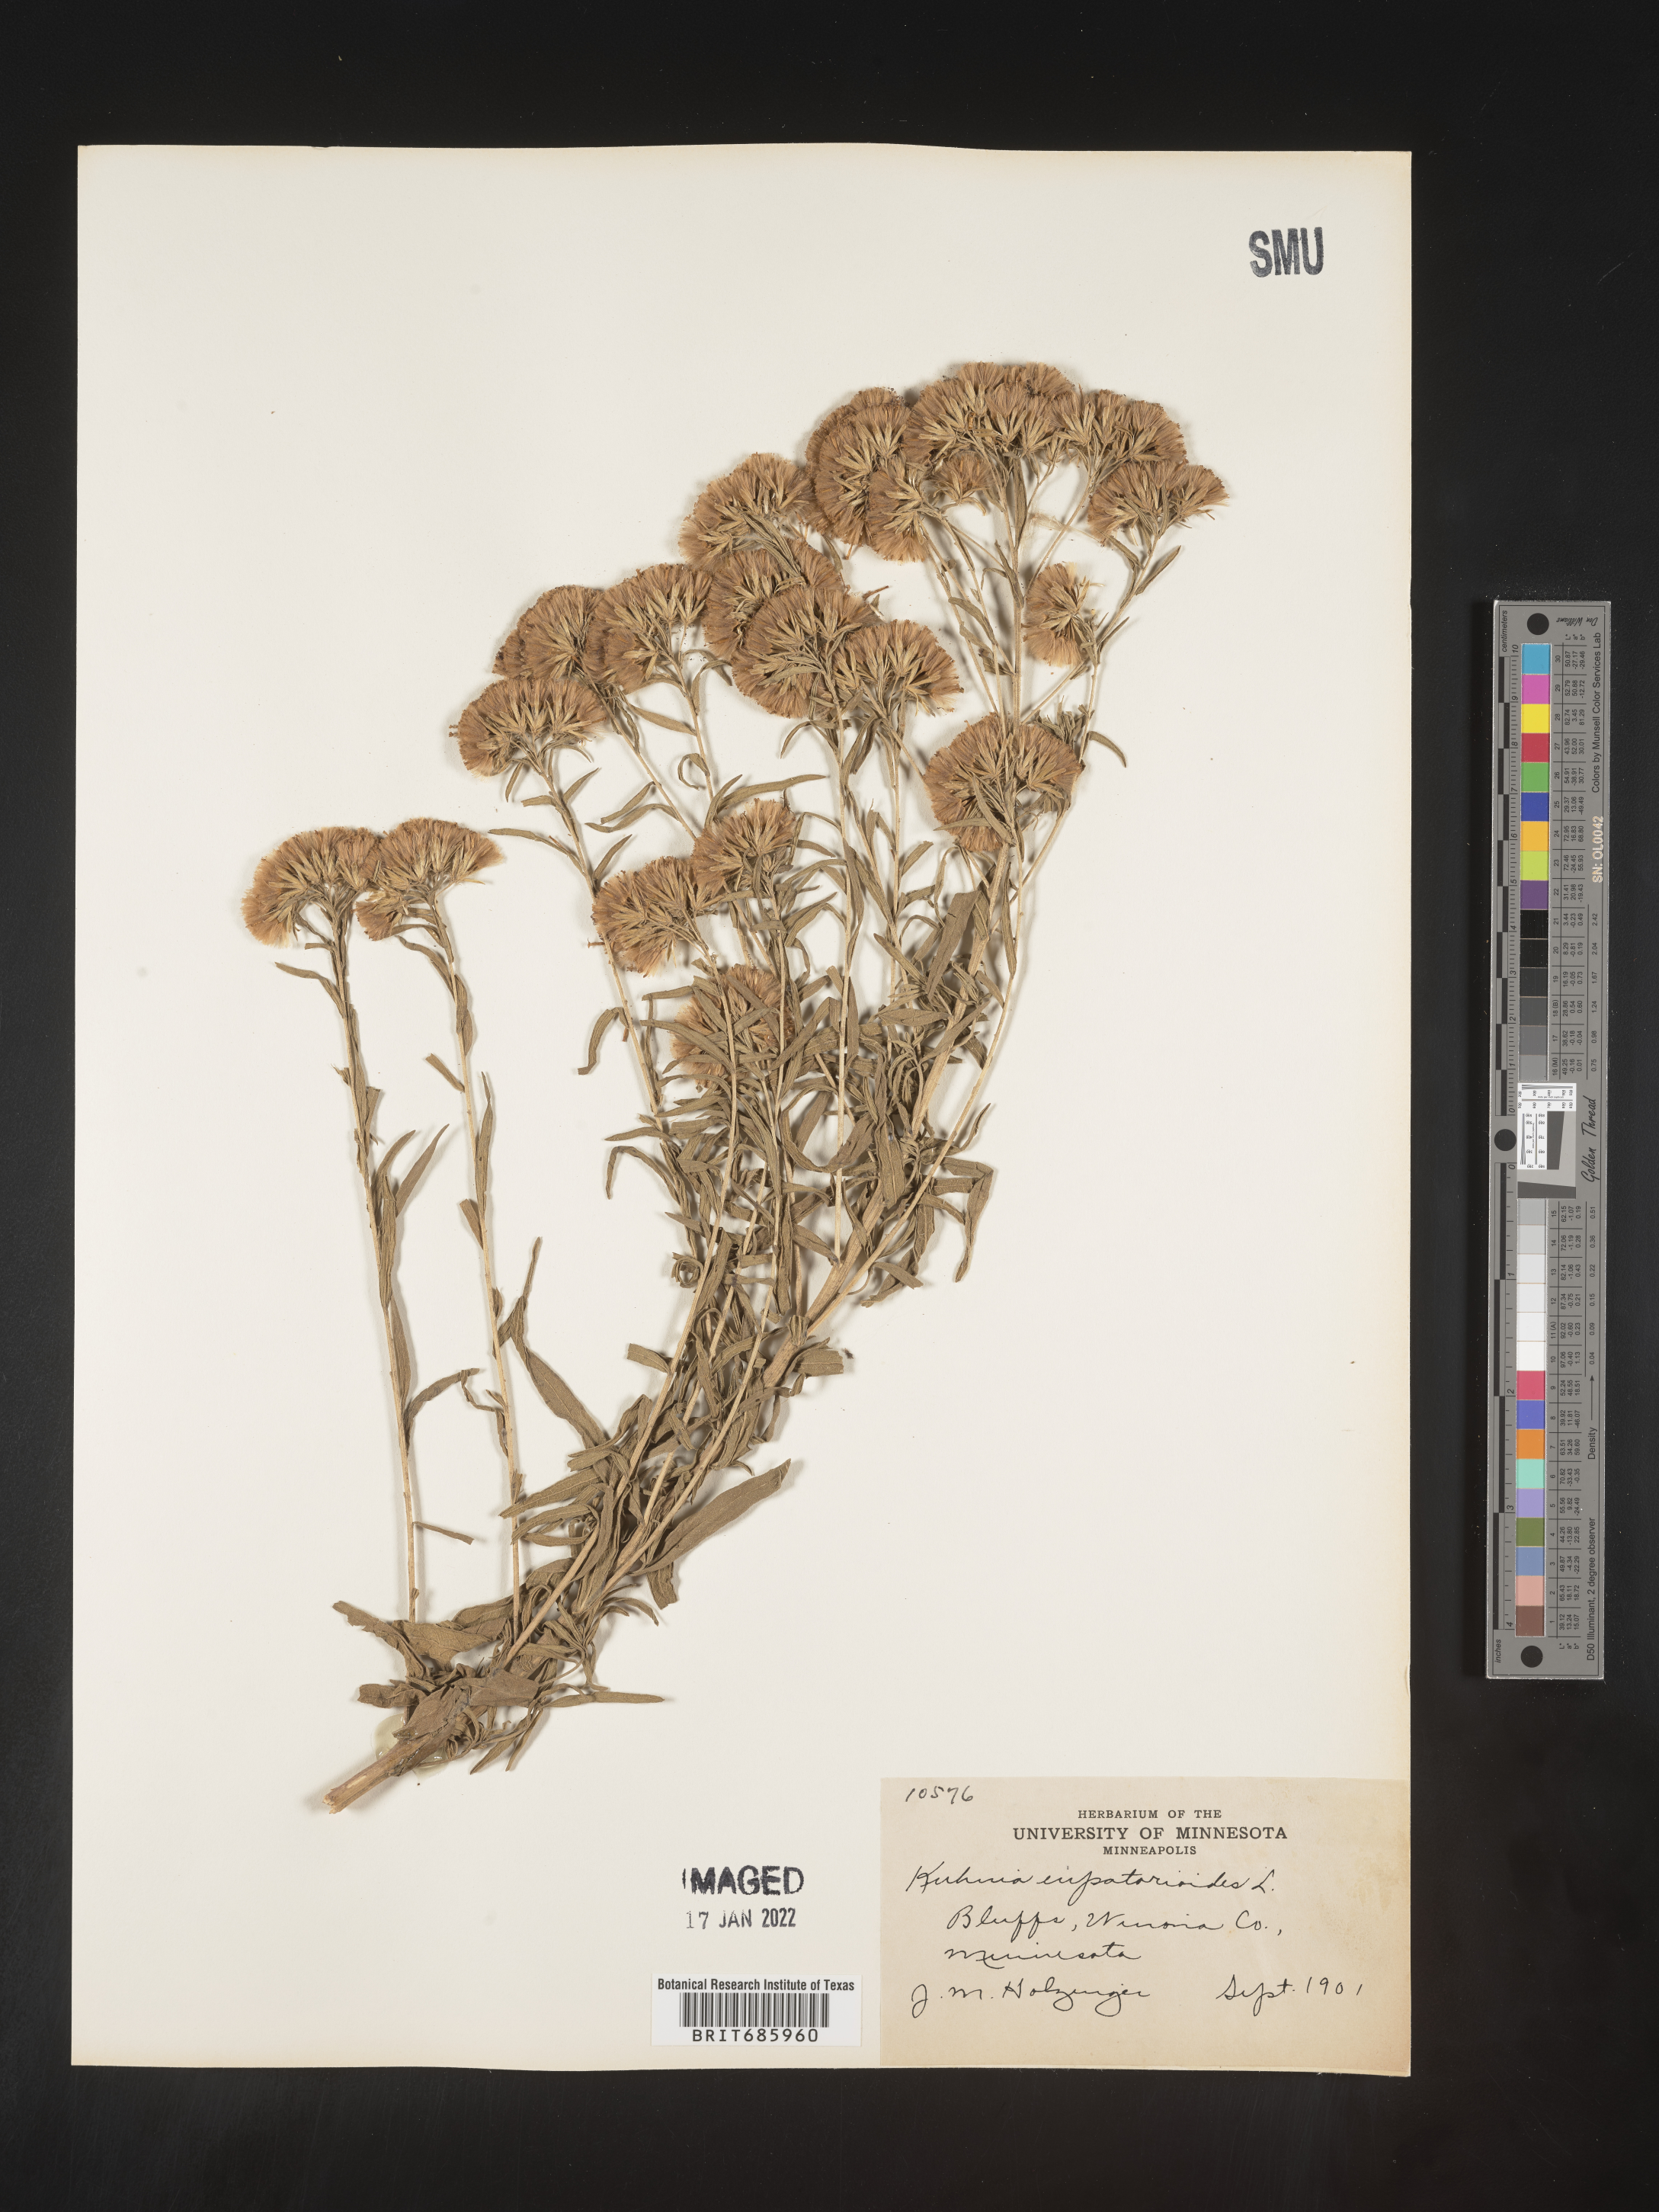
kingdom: Plantae
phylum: Tracheophyta
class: Magnoliopsida
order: Asterales
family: Asteraceae
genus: Brickellia
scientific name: Brickellia eupatorioides
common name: False boneset
